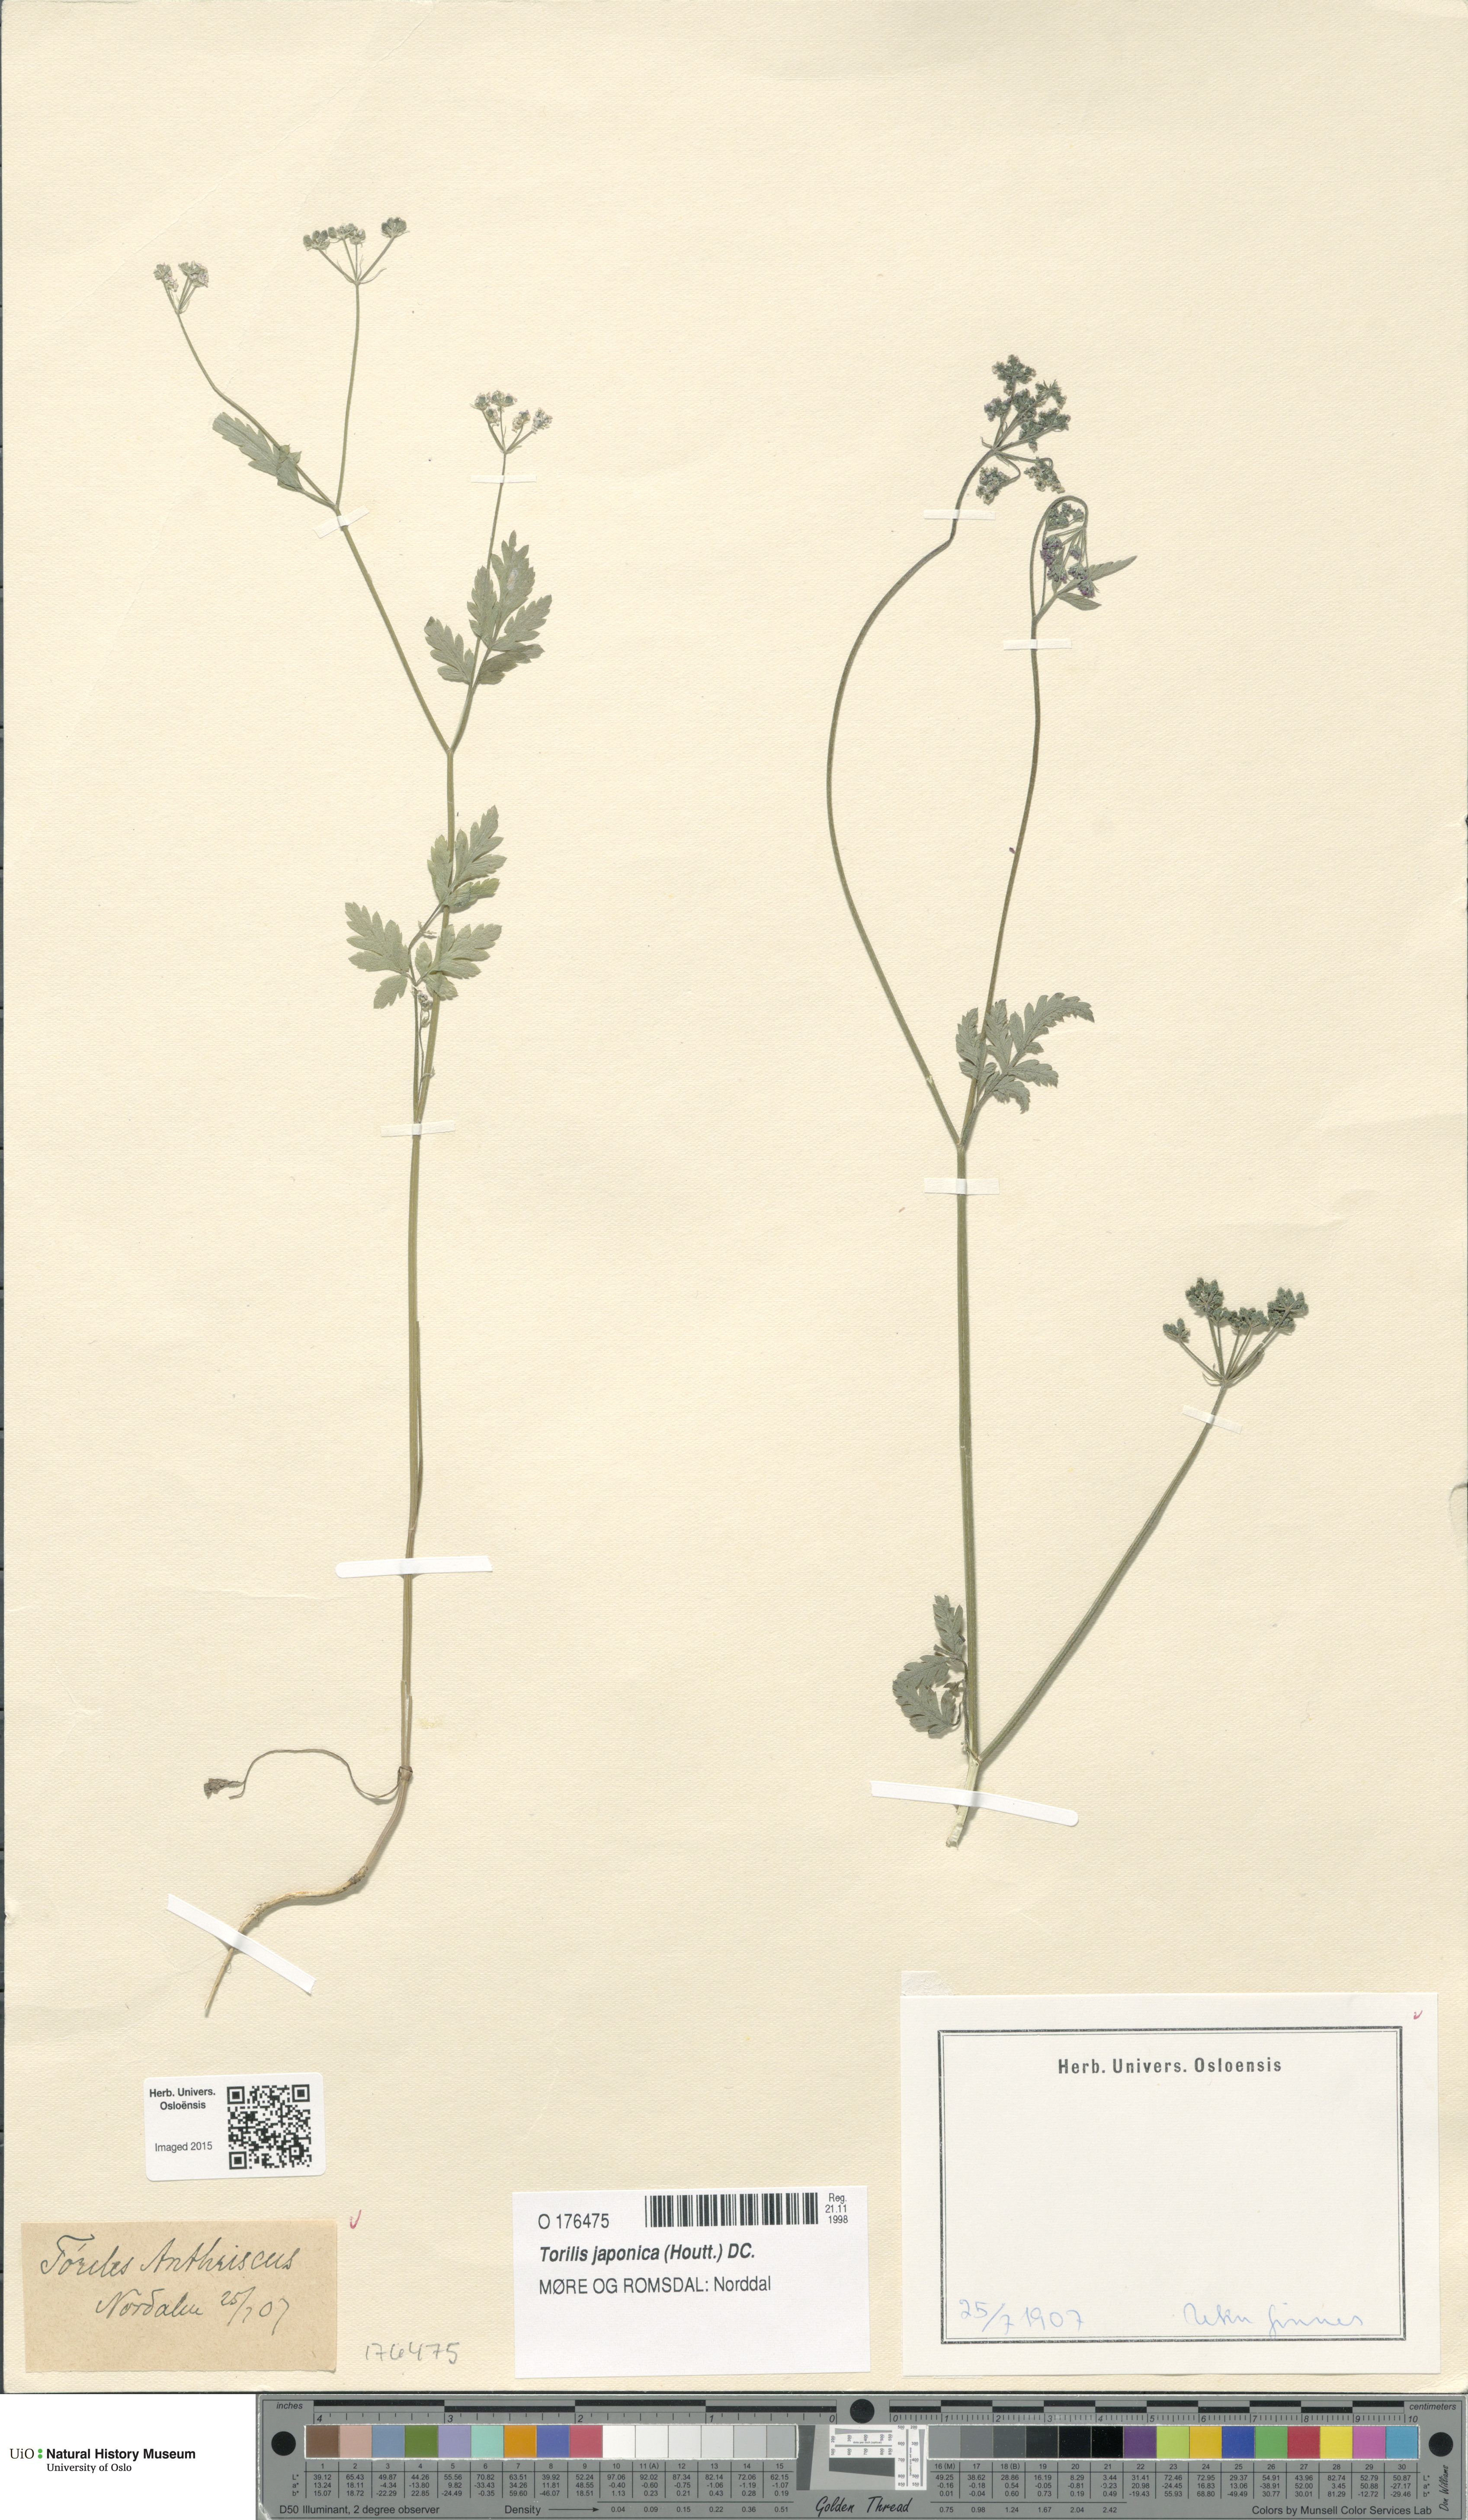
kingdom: Plantae
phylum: Tracheophyta
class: Magnoliopsida
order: Apiales
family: Apiaceae
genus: Torilis
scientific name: Torilis japonica
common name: Upright hedge-parsley
